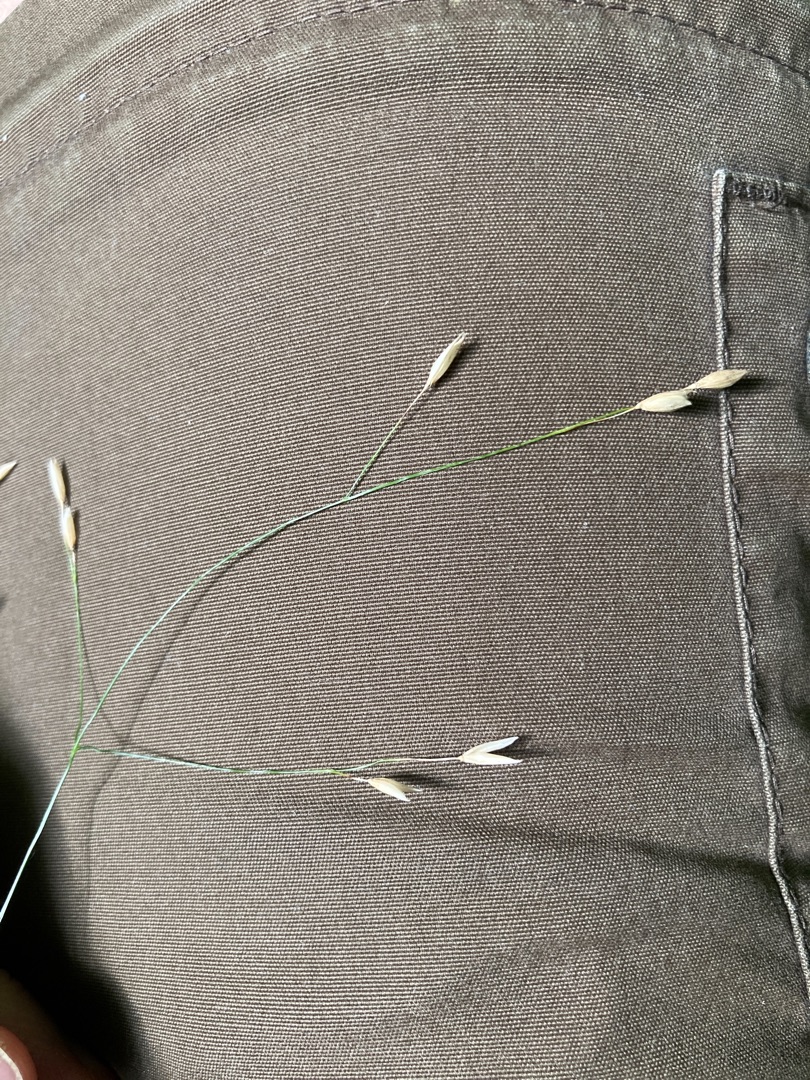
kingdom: Plantae
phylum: Tracheophyta
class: Liliopsida
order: Poales
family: Poaceae
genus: Melica
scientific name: Melica uniflora
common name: Enblomstret flitteraks
